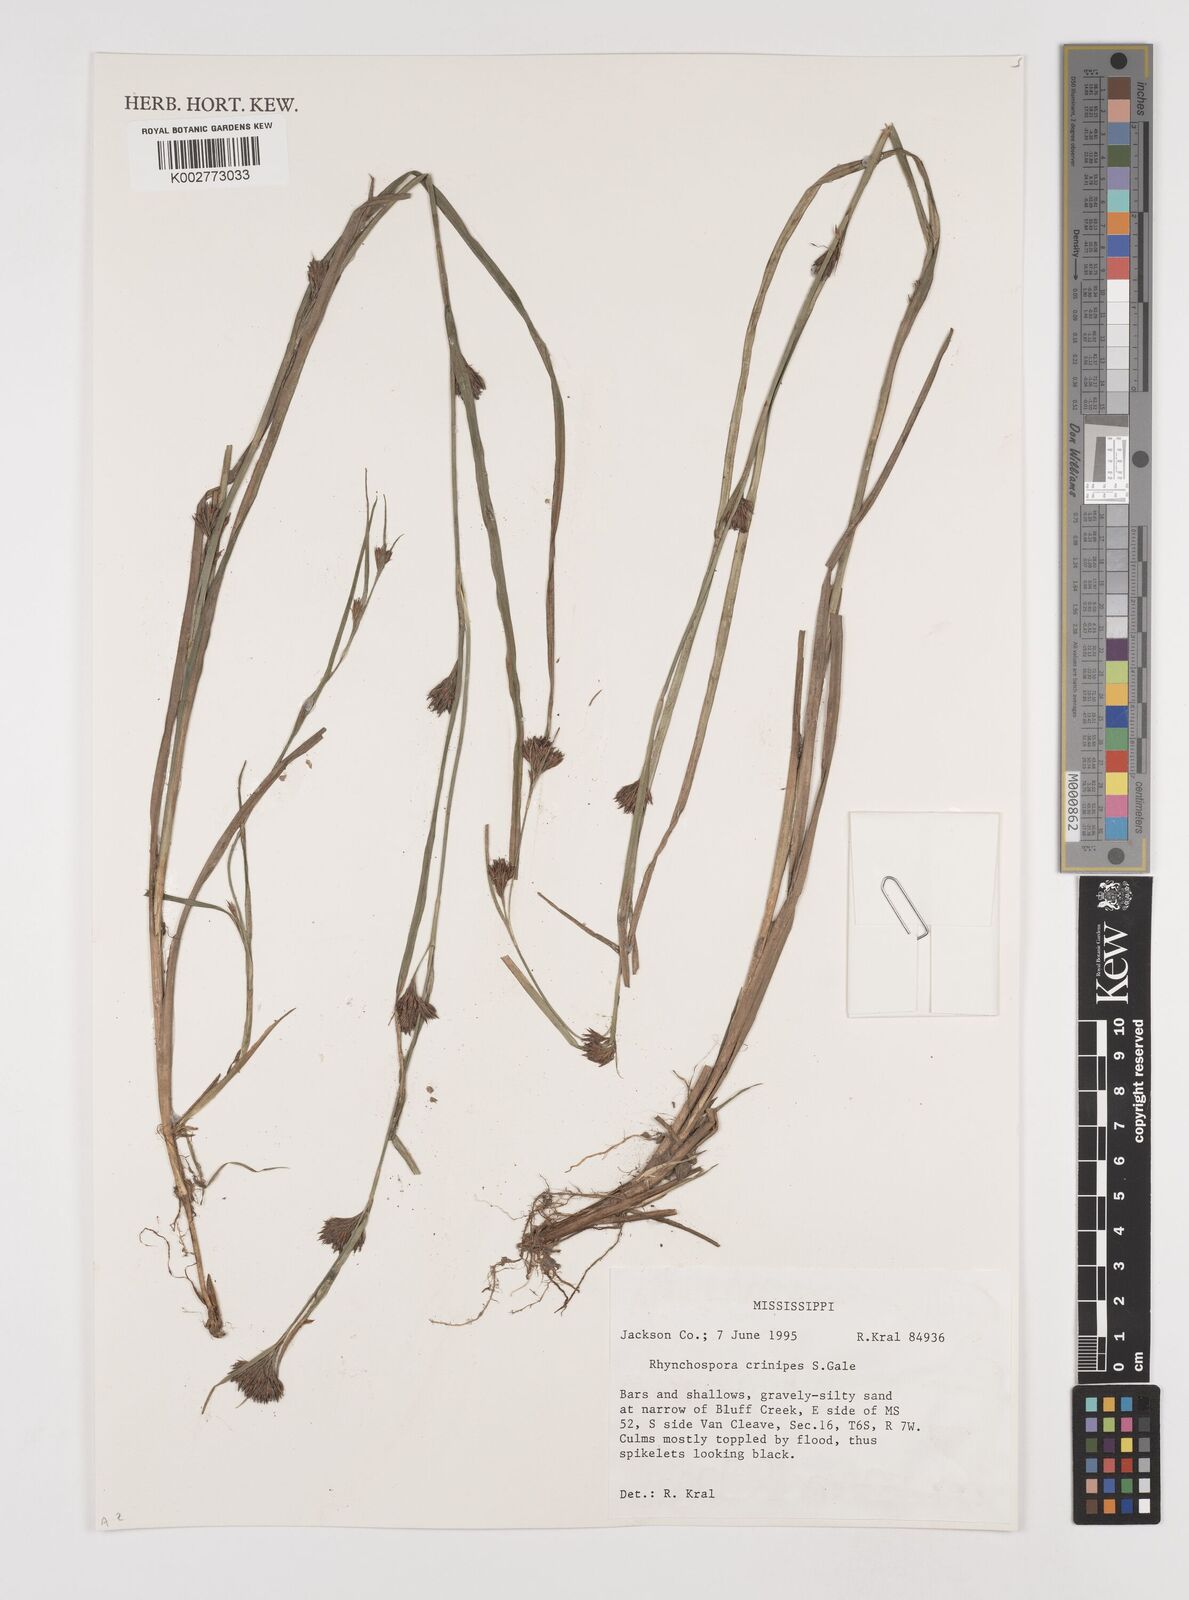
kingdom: Plantae
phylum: Tracheophyta
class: Liliopsida
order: Poales
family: Cyperaceae
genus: Rhynchospora
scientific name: Rhynchospora crinipes
